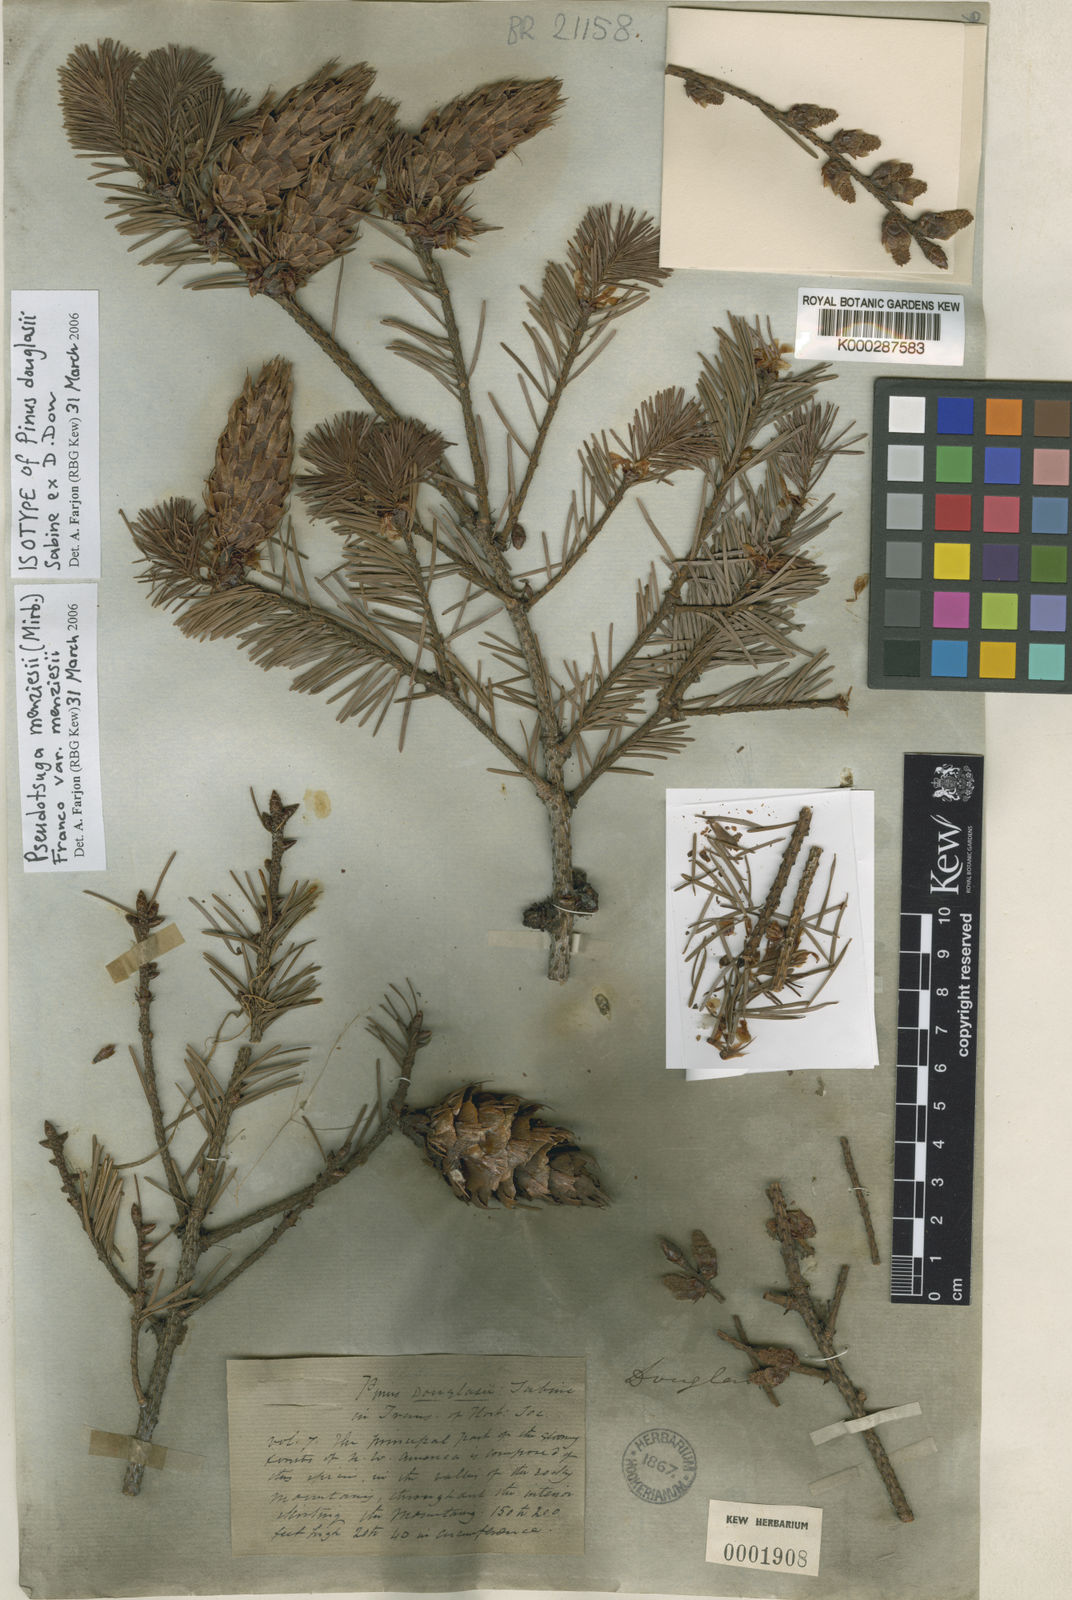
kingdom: Plantae
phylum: Tracheophyta
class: Pinopsida
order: Pinales
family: Pinaceae
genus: Pseudotsuga
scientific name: Pseudotsuga menziesii
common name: Douglas fir
